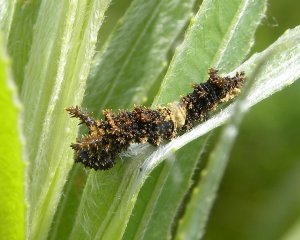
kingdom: Animalia
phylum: Arthropoda
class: Insecta
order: Lepidoptera
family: Nymphalidae
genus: Limenitis
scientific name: Limenitis archippus
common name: Viceroy
